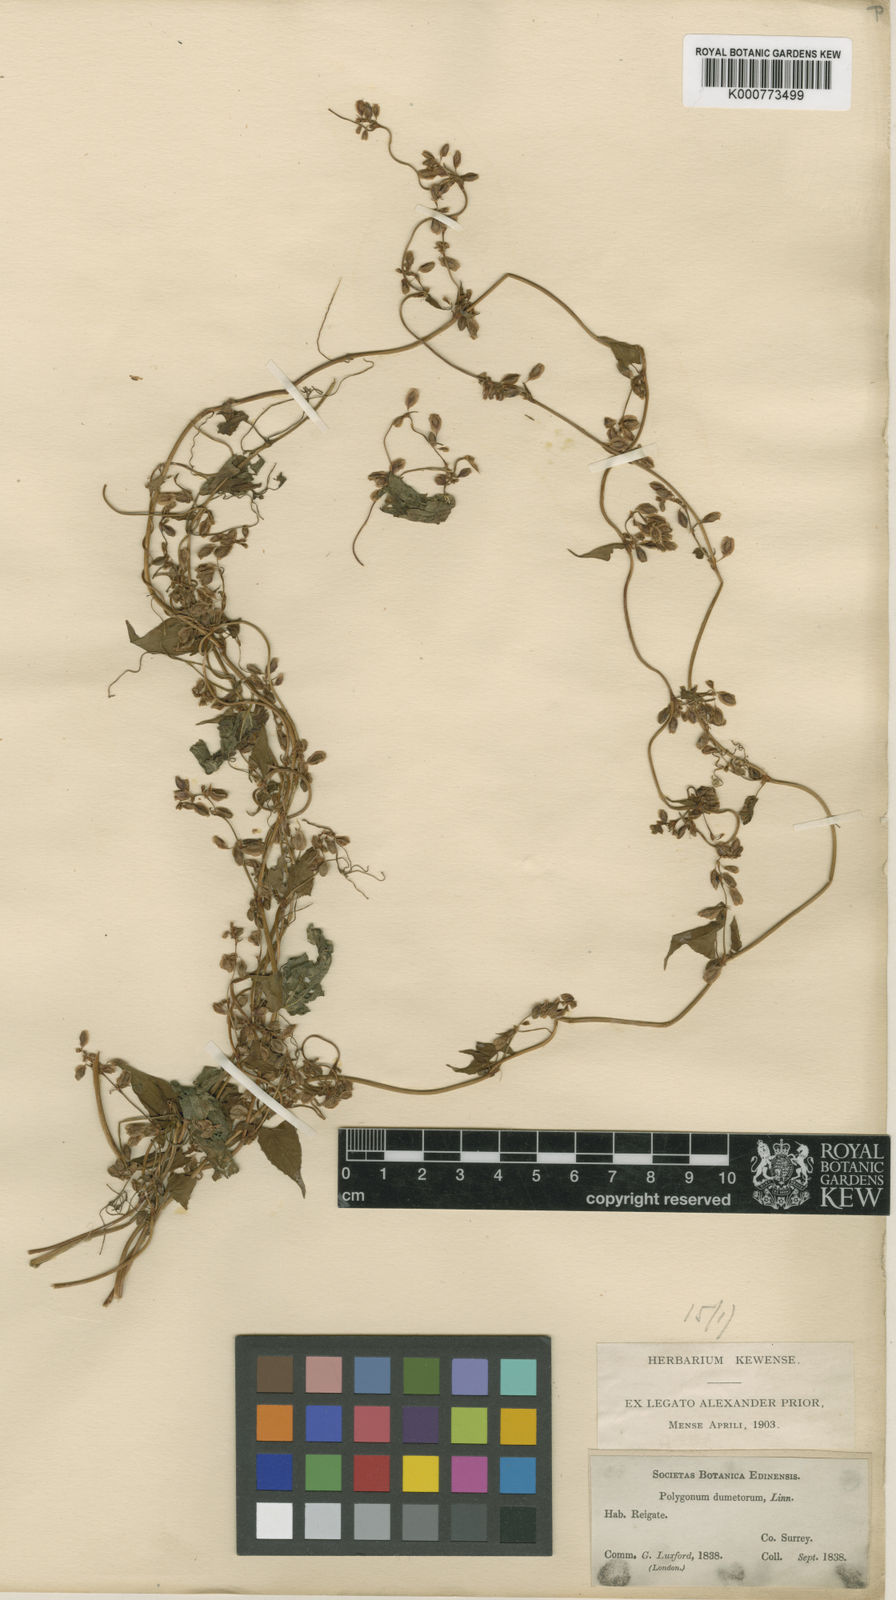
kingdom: Plantae
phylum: Tracheophyta
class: Magnoliopsida
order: Caryophyllales
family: Polygonaceae
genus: Fallopia
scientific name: Fallopia dumetorum
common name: Copse-bindweed
